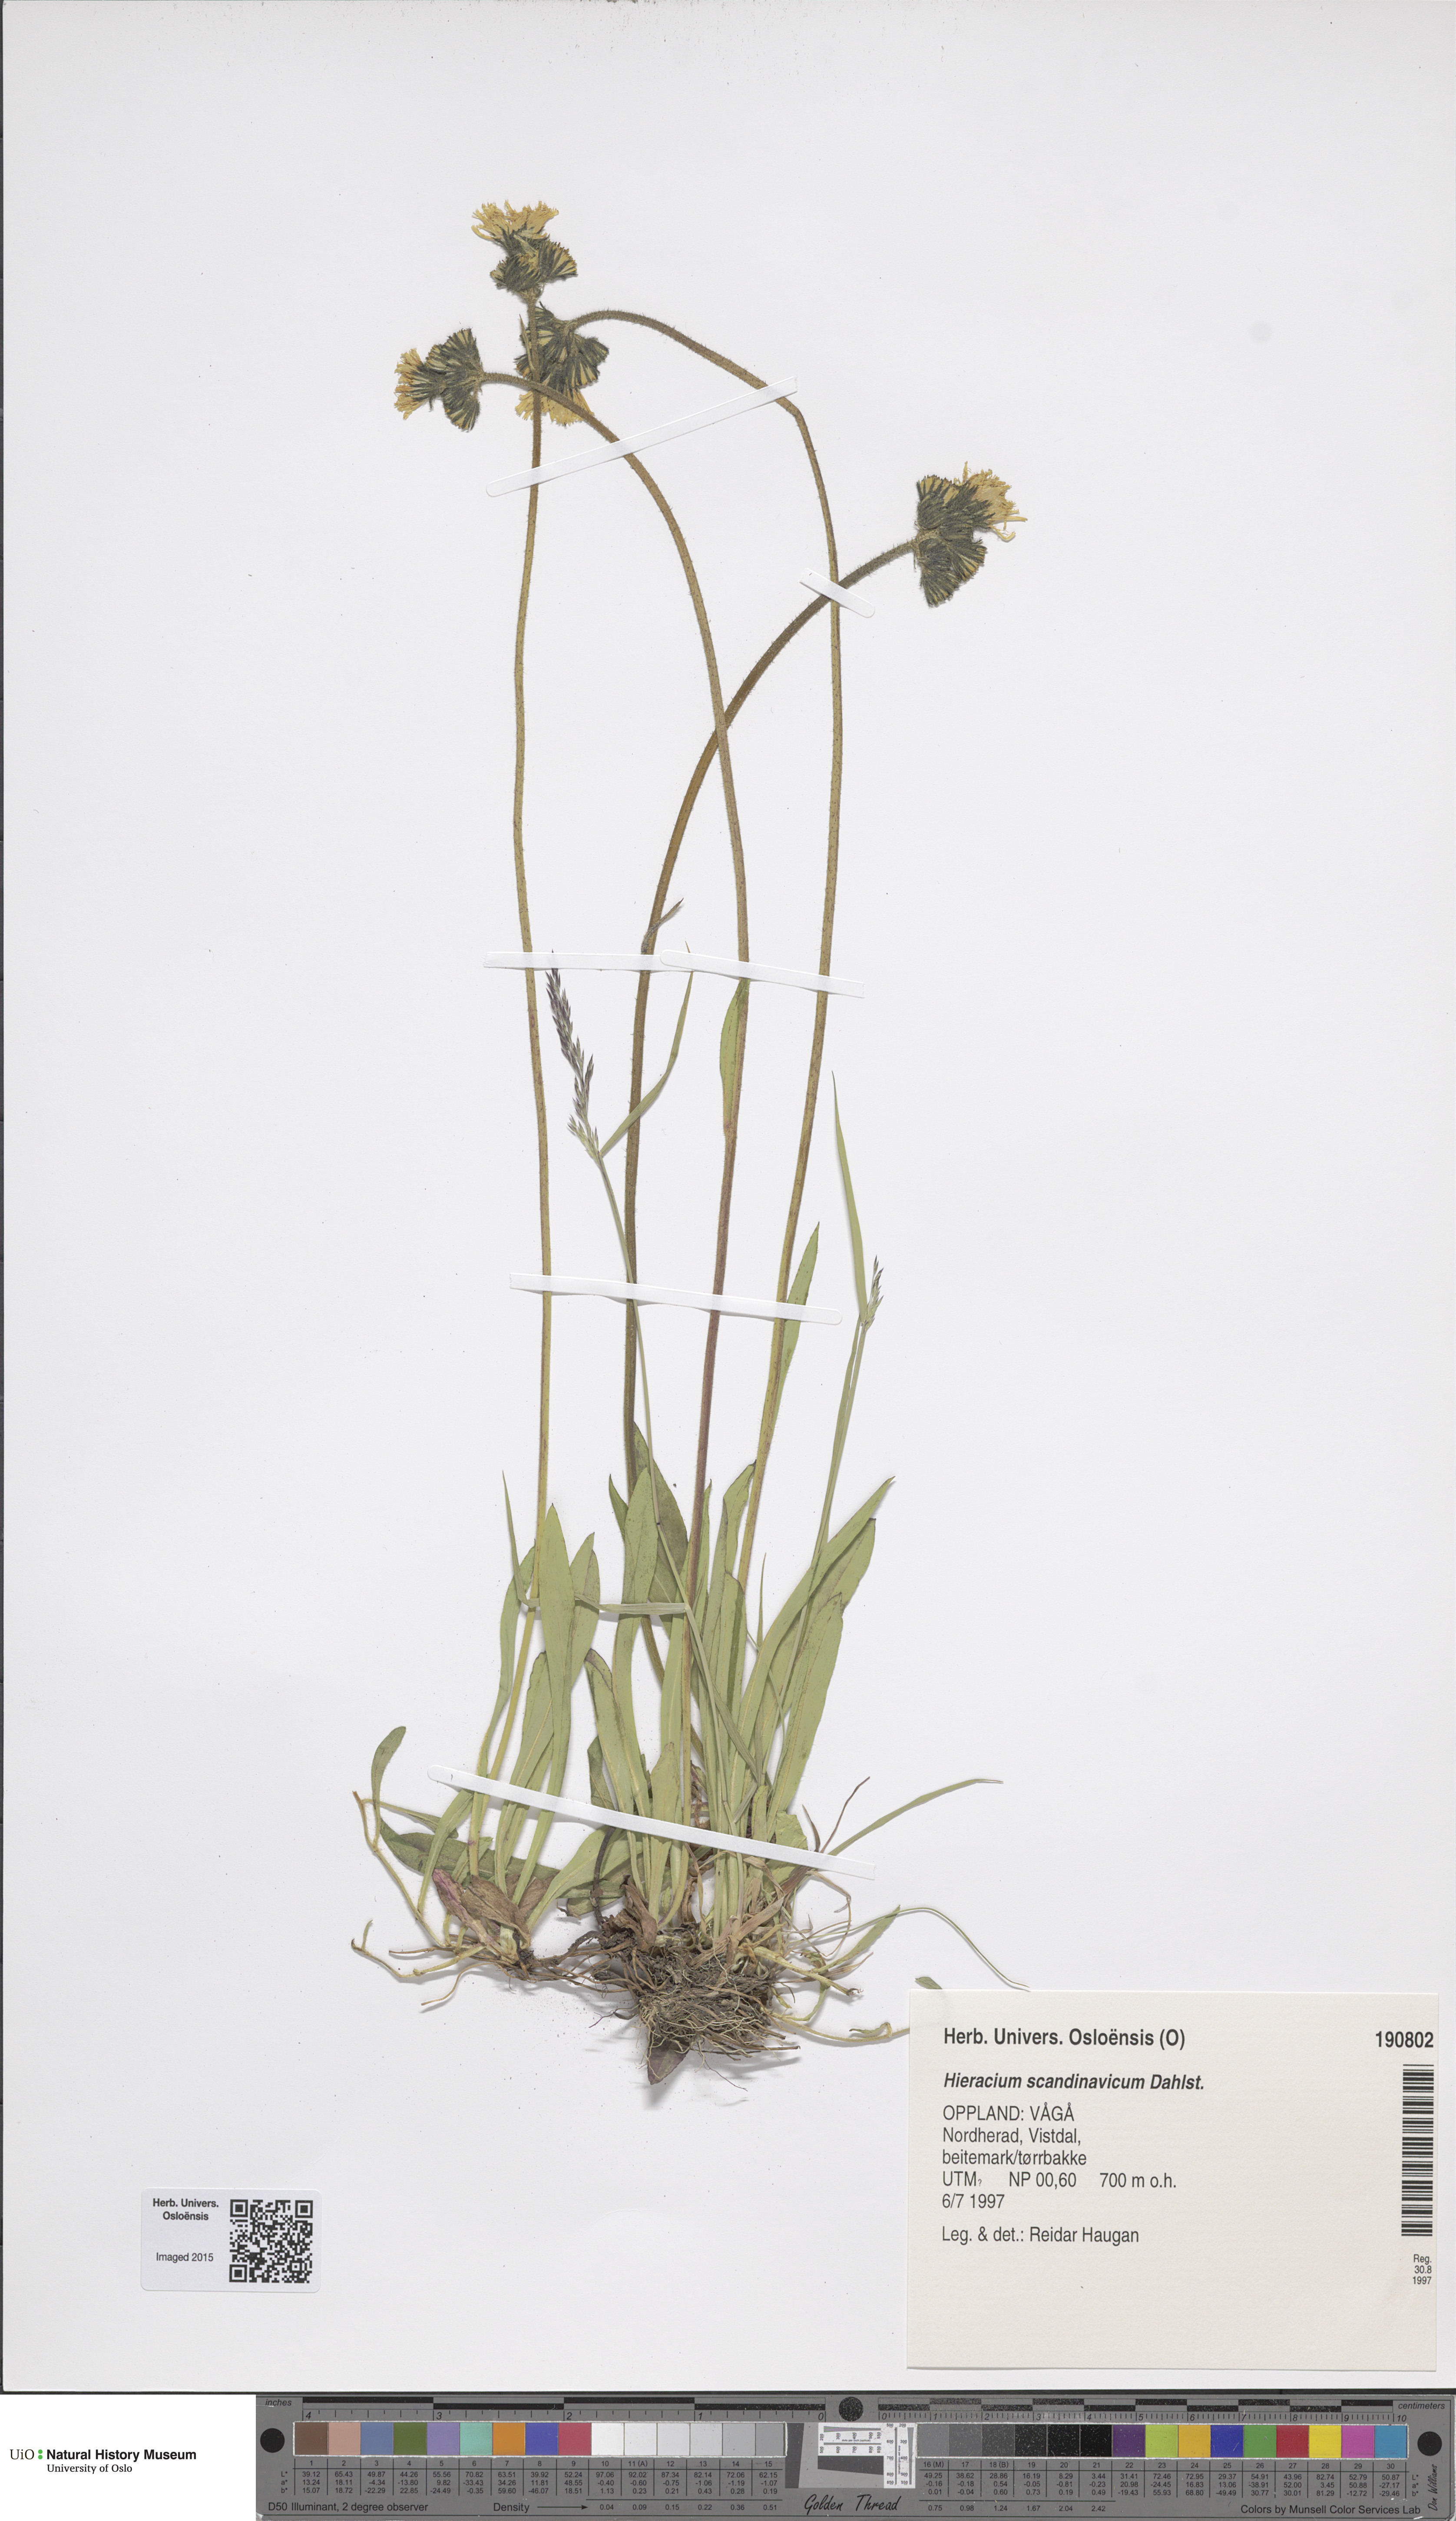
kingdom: Plantae
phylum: Tracheophyta
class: Magnoliopsida
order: Asterales
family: Asteraceae
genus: Pilosella
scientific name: Pilosella scandinavica
